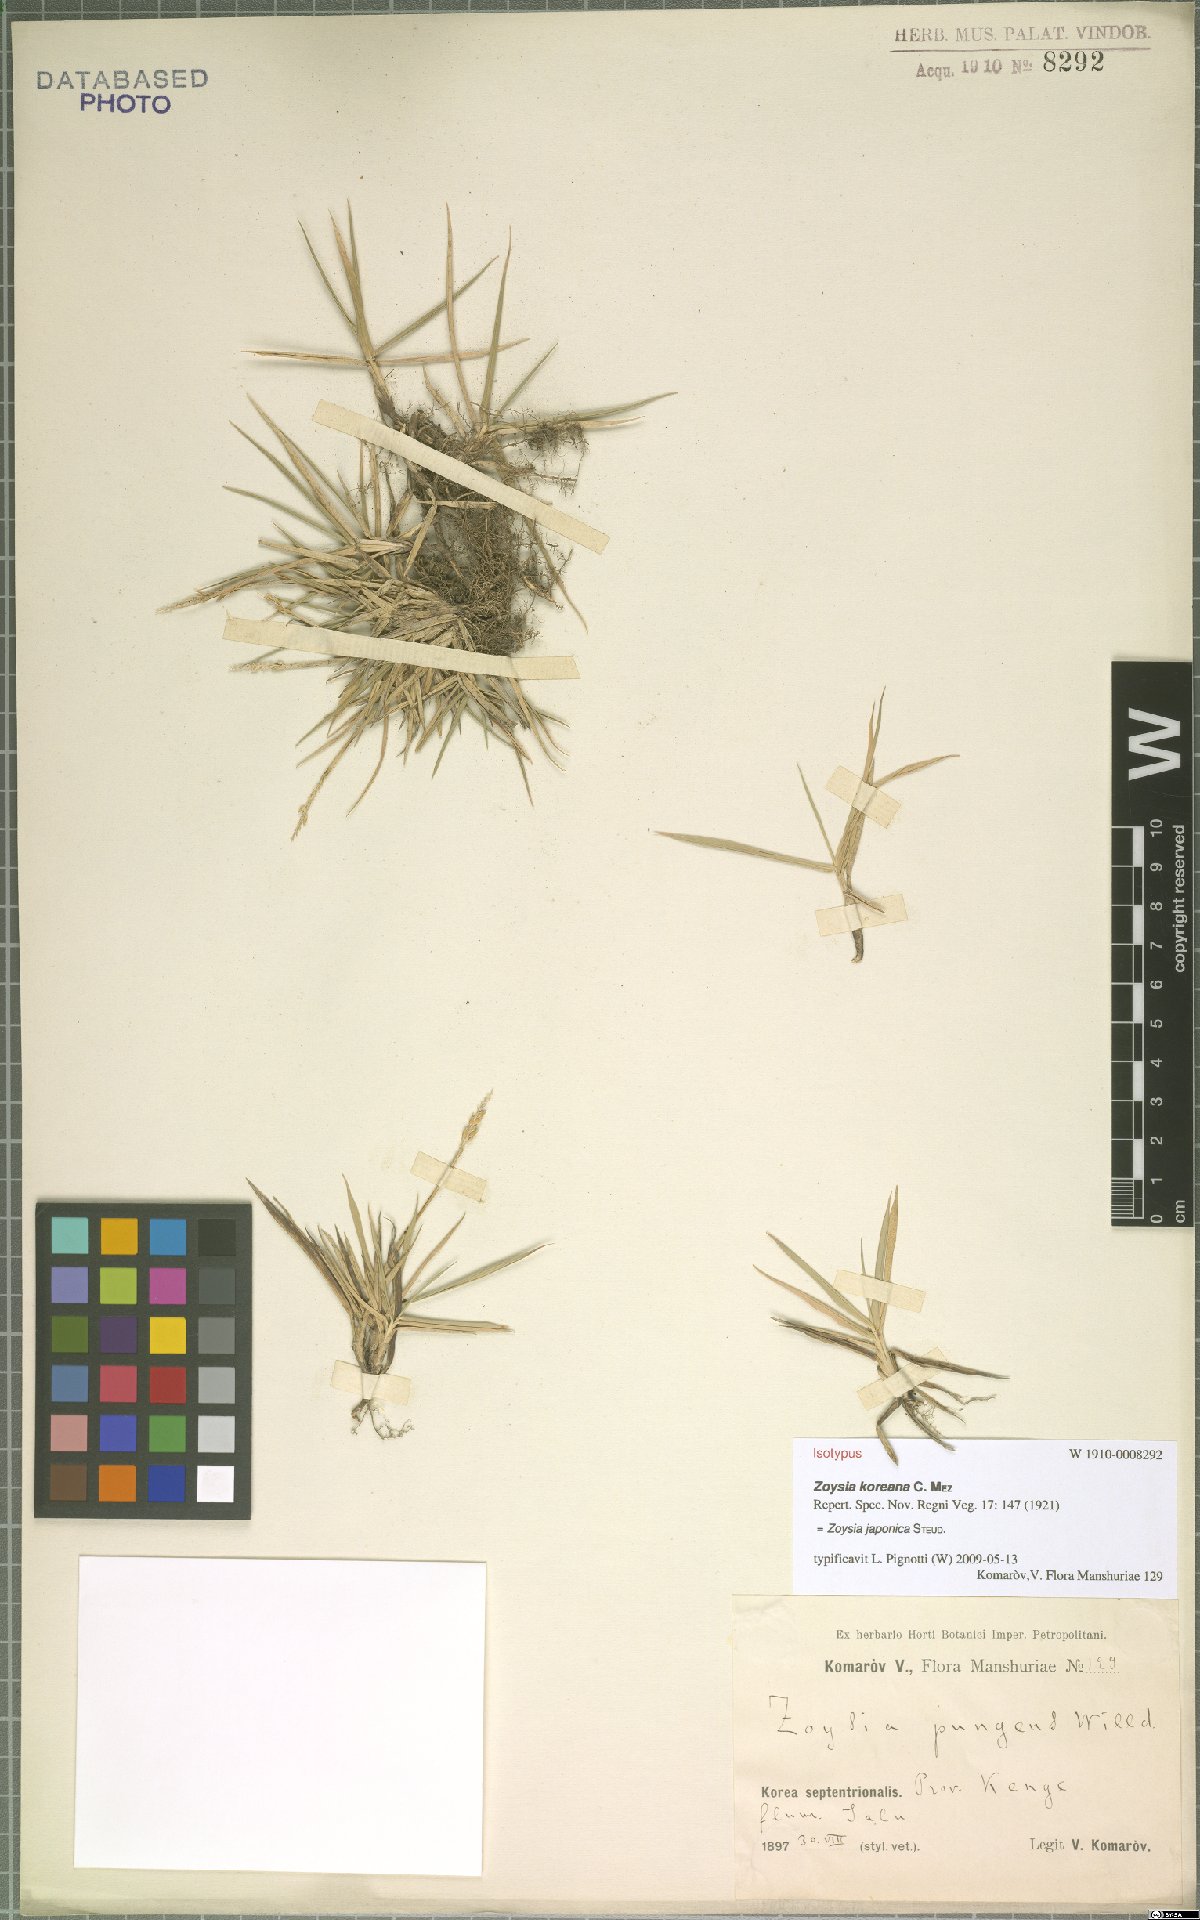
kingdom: Plantae
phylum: Tracheophyta
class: Liliopsida
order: Poales
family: Poaceae
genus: Zoysia
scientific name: Zoysia japonica
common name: Korean lawngrass
